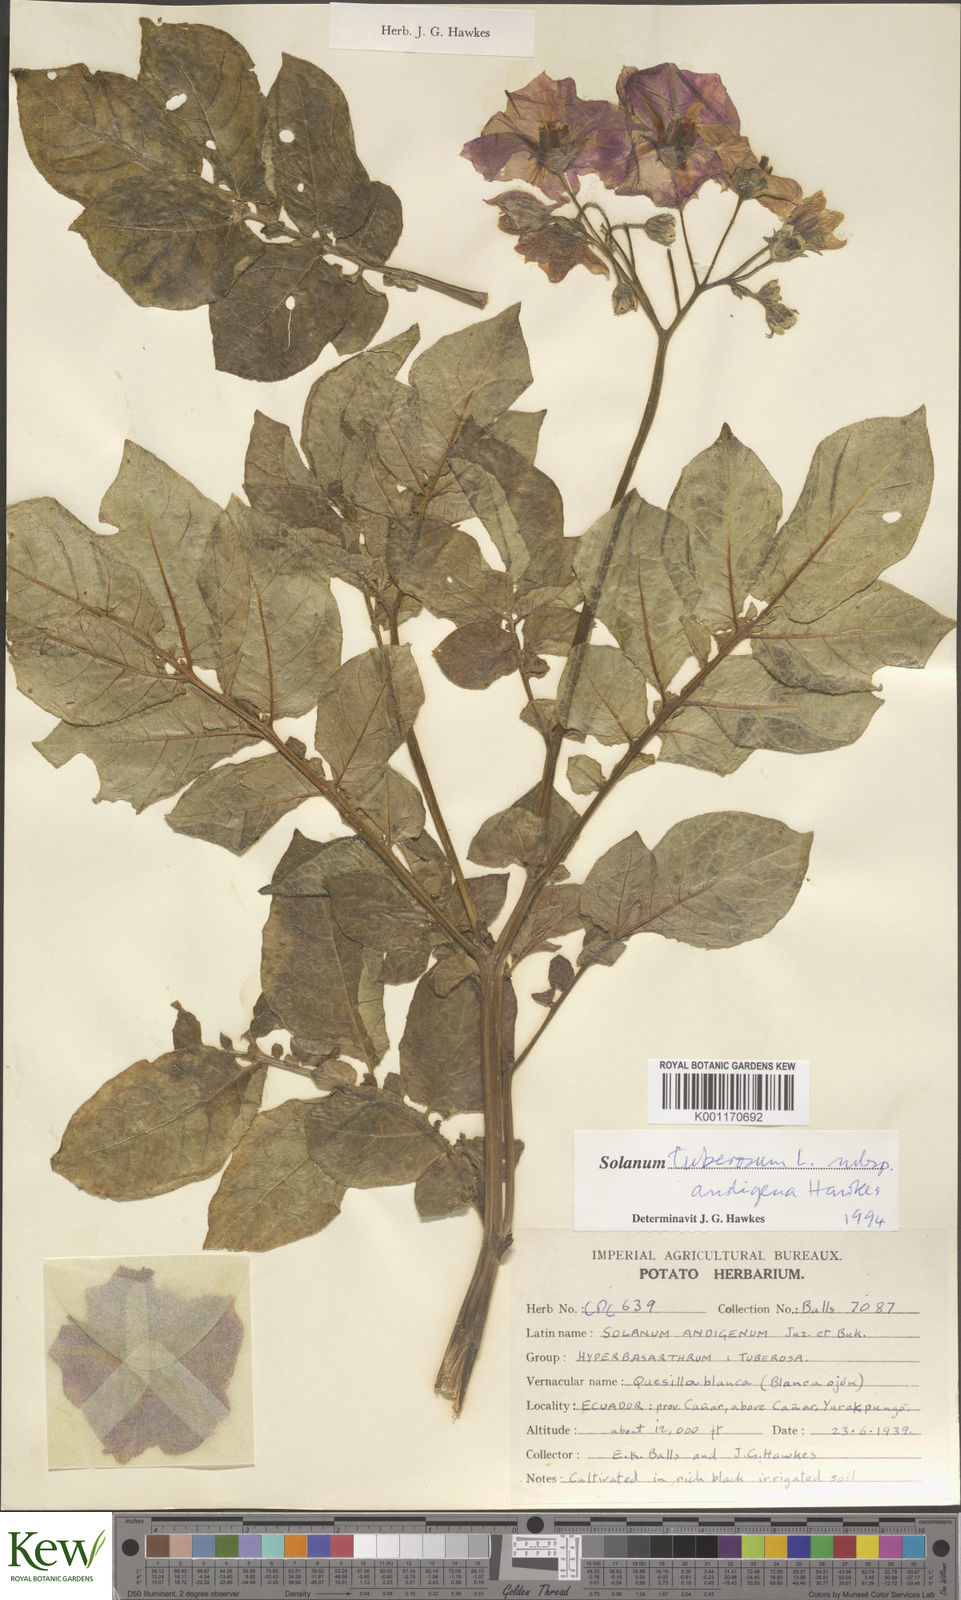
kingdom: Plantae
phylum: Tracheophyta
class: Magnoliopsida
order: Solanales
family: Solanaceae
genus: Solanum
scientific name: Solanum tuberosum
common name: Potato
